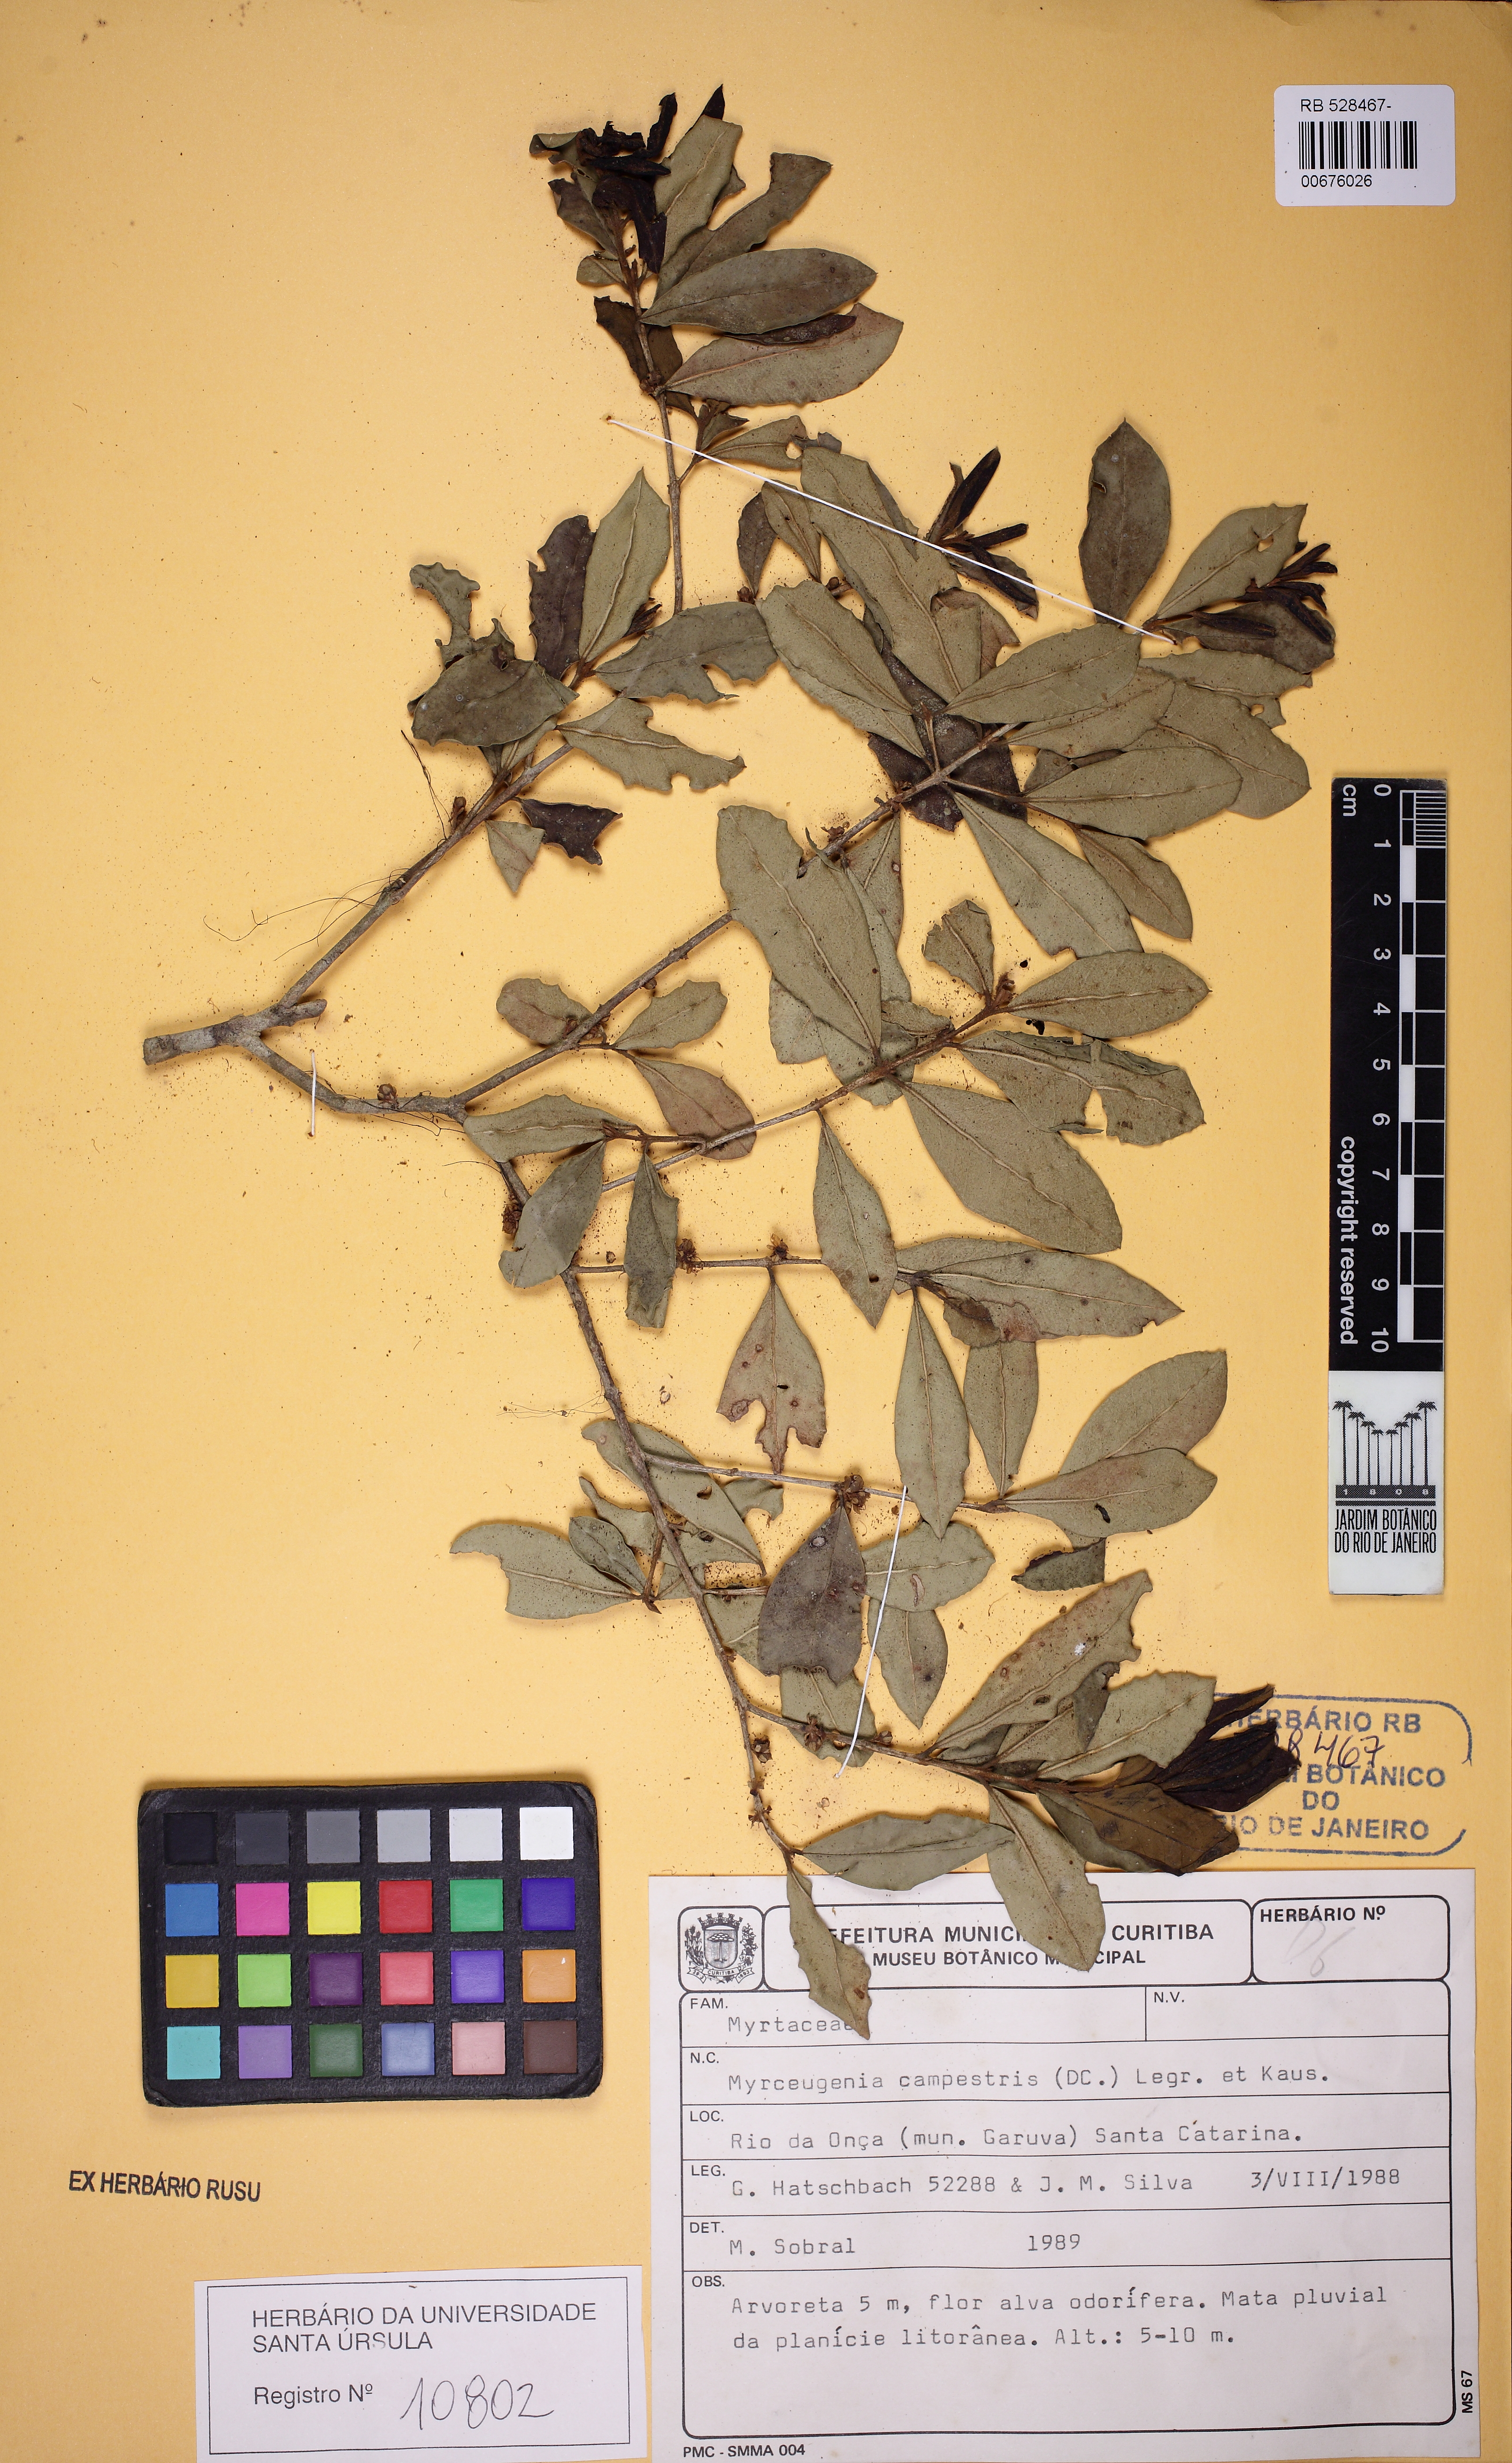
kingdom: Plantae
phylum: Tracheophyta
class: Magnoliopsida
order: Myrtales
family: Myrtaceae
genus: Myrceugenia
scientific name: Myrceugenia campestris
